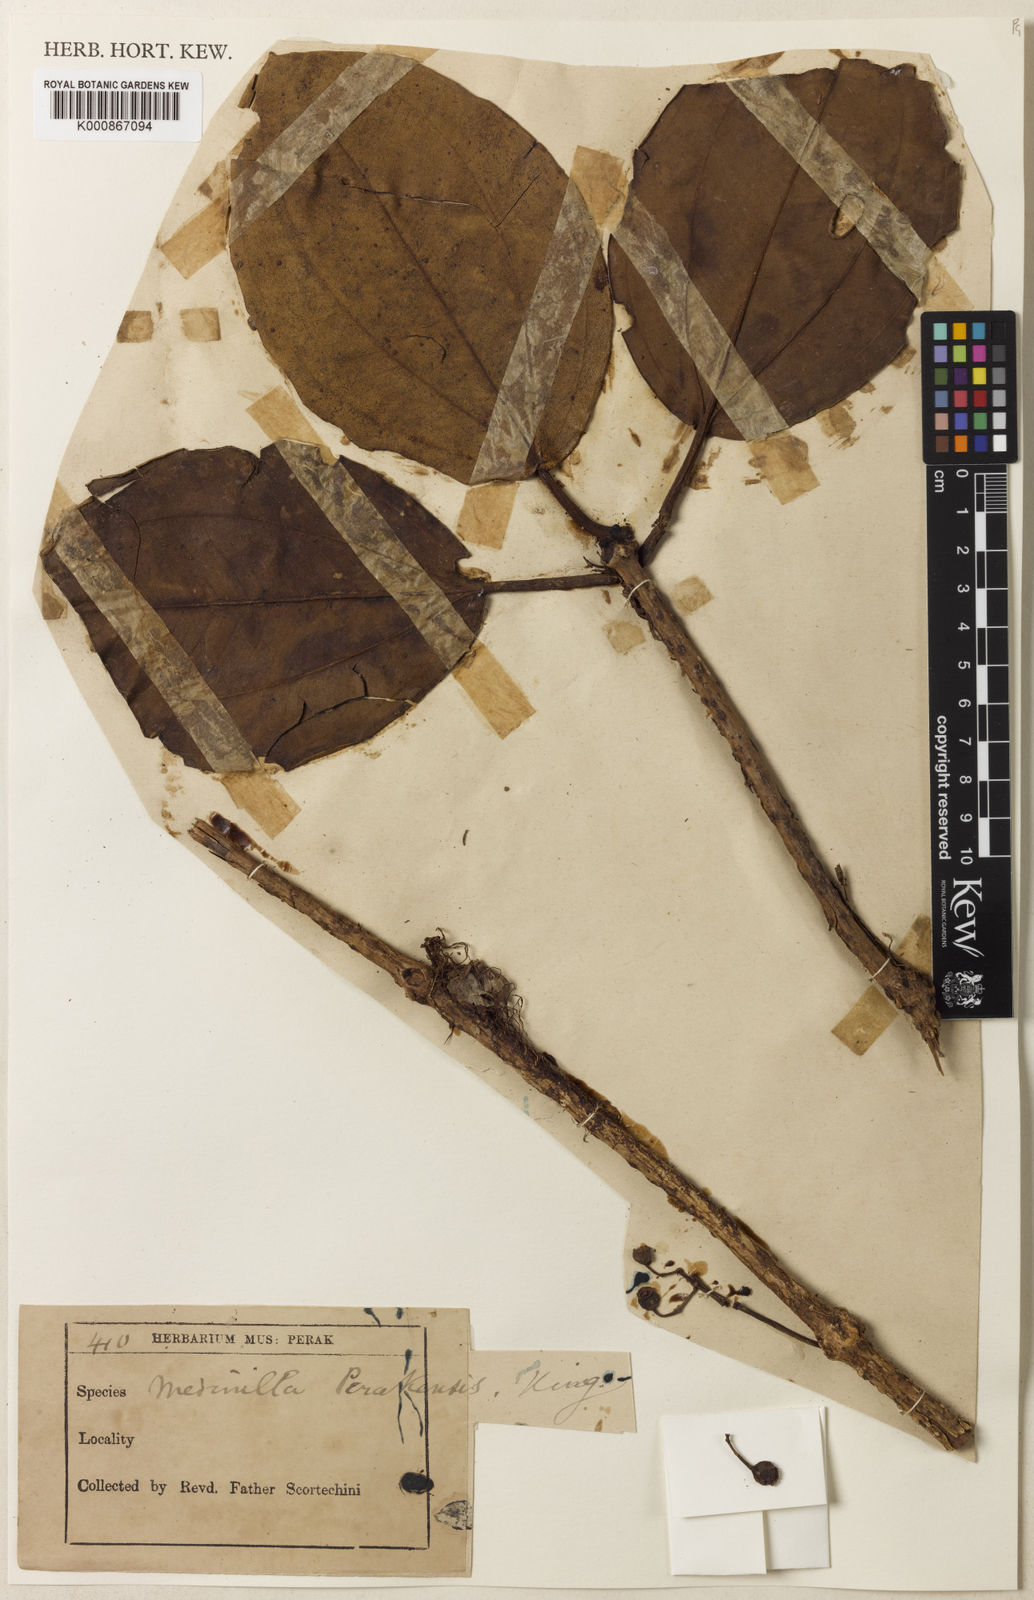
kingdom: Plantae
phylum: Tracheophyta
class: Magnoliopsida
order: Myrtales
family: Melastomataceae
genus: Medinilla
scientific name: Medinilla clarkei
